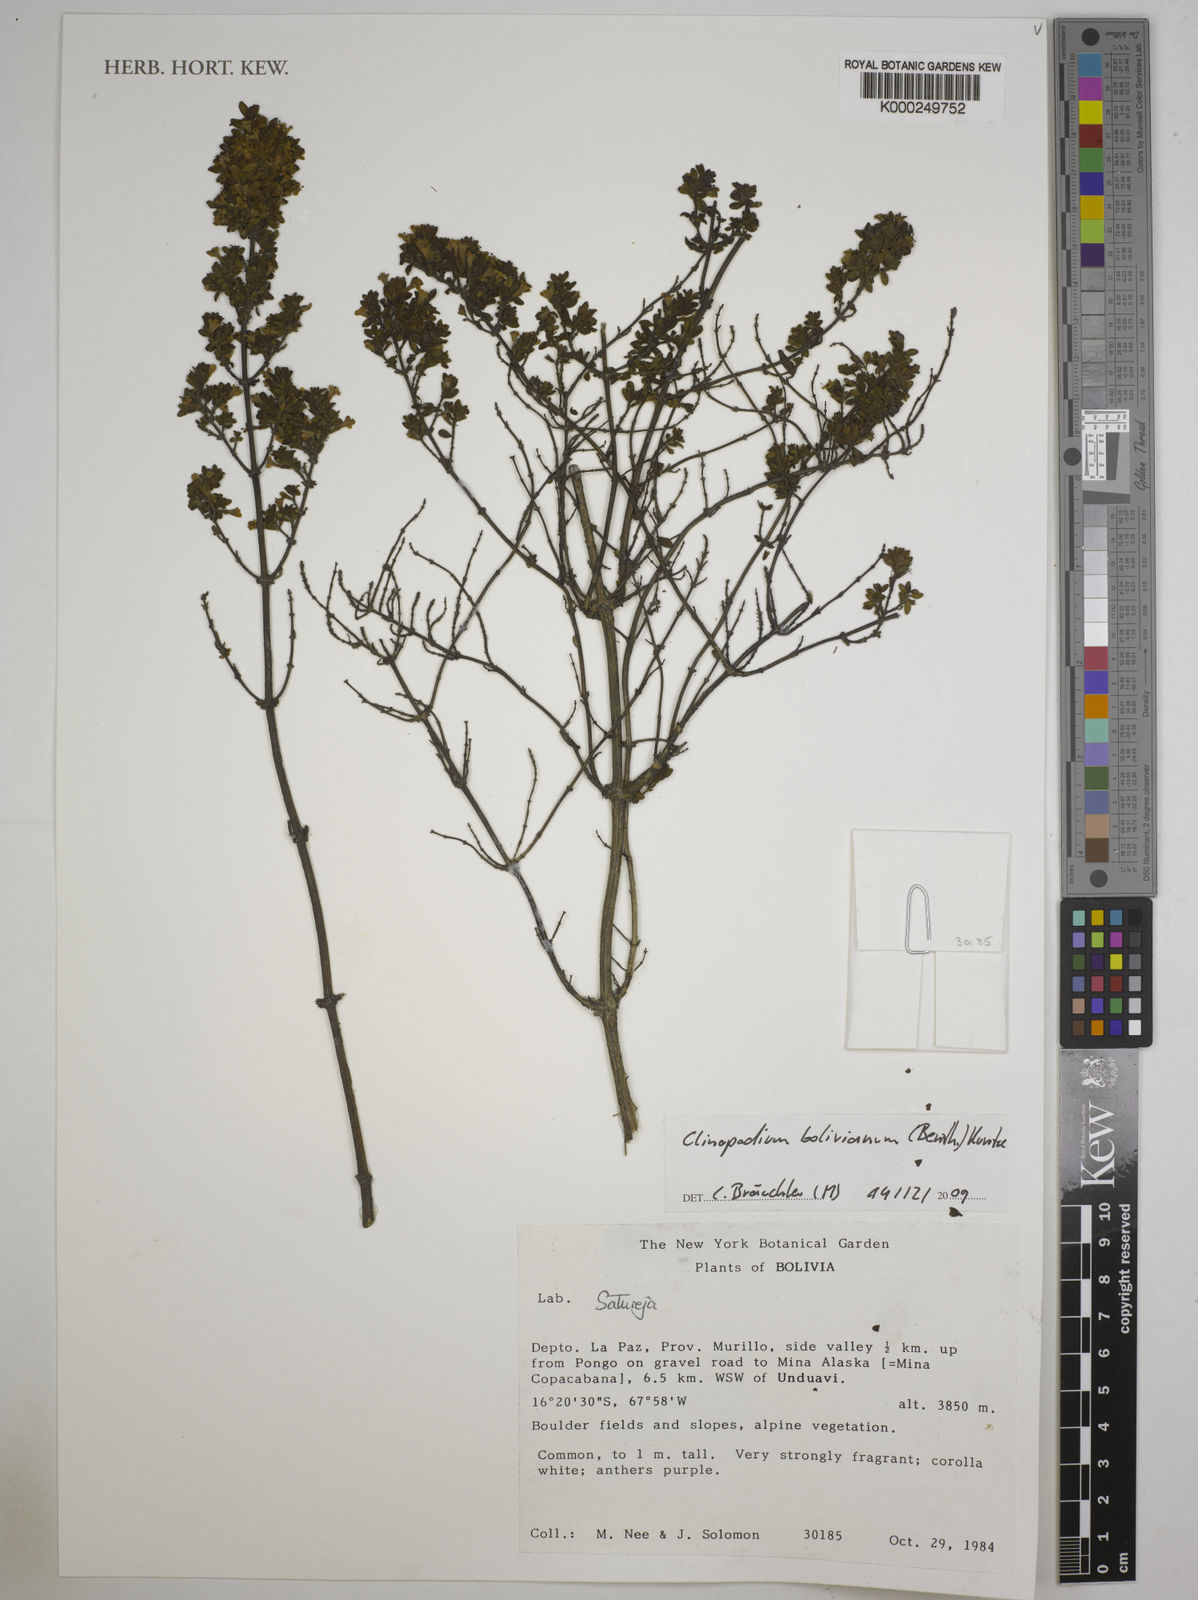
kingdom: Plantae
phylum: Tracheophyta
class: Magnoliopsida
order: Lamiales
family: Lamiaceae
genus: Clinopodium
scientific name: Clinopodium bolivianum
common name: Inca muña
